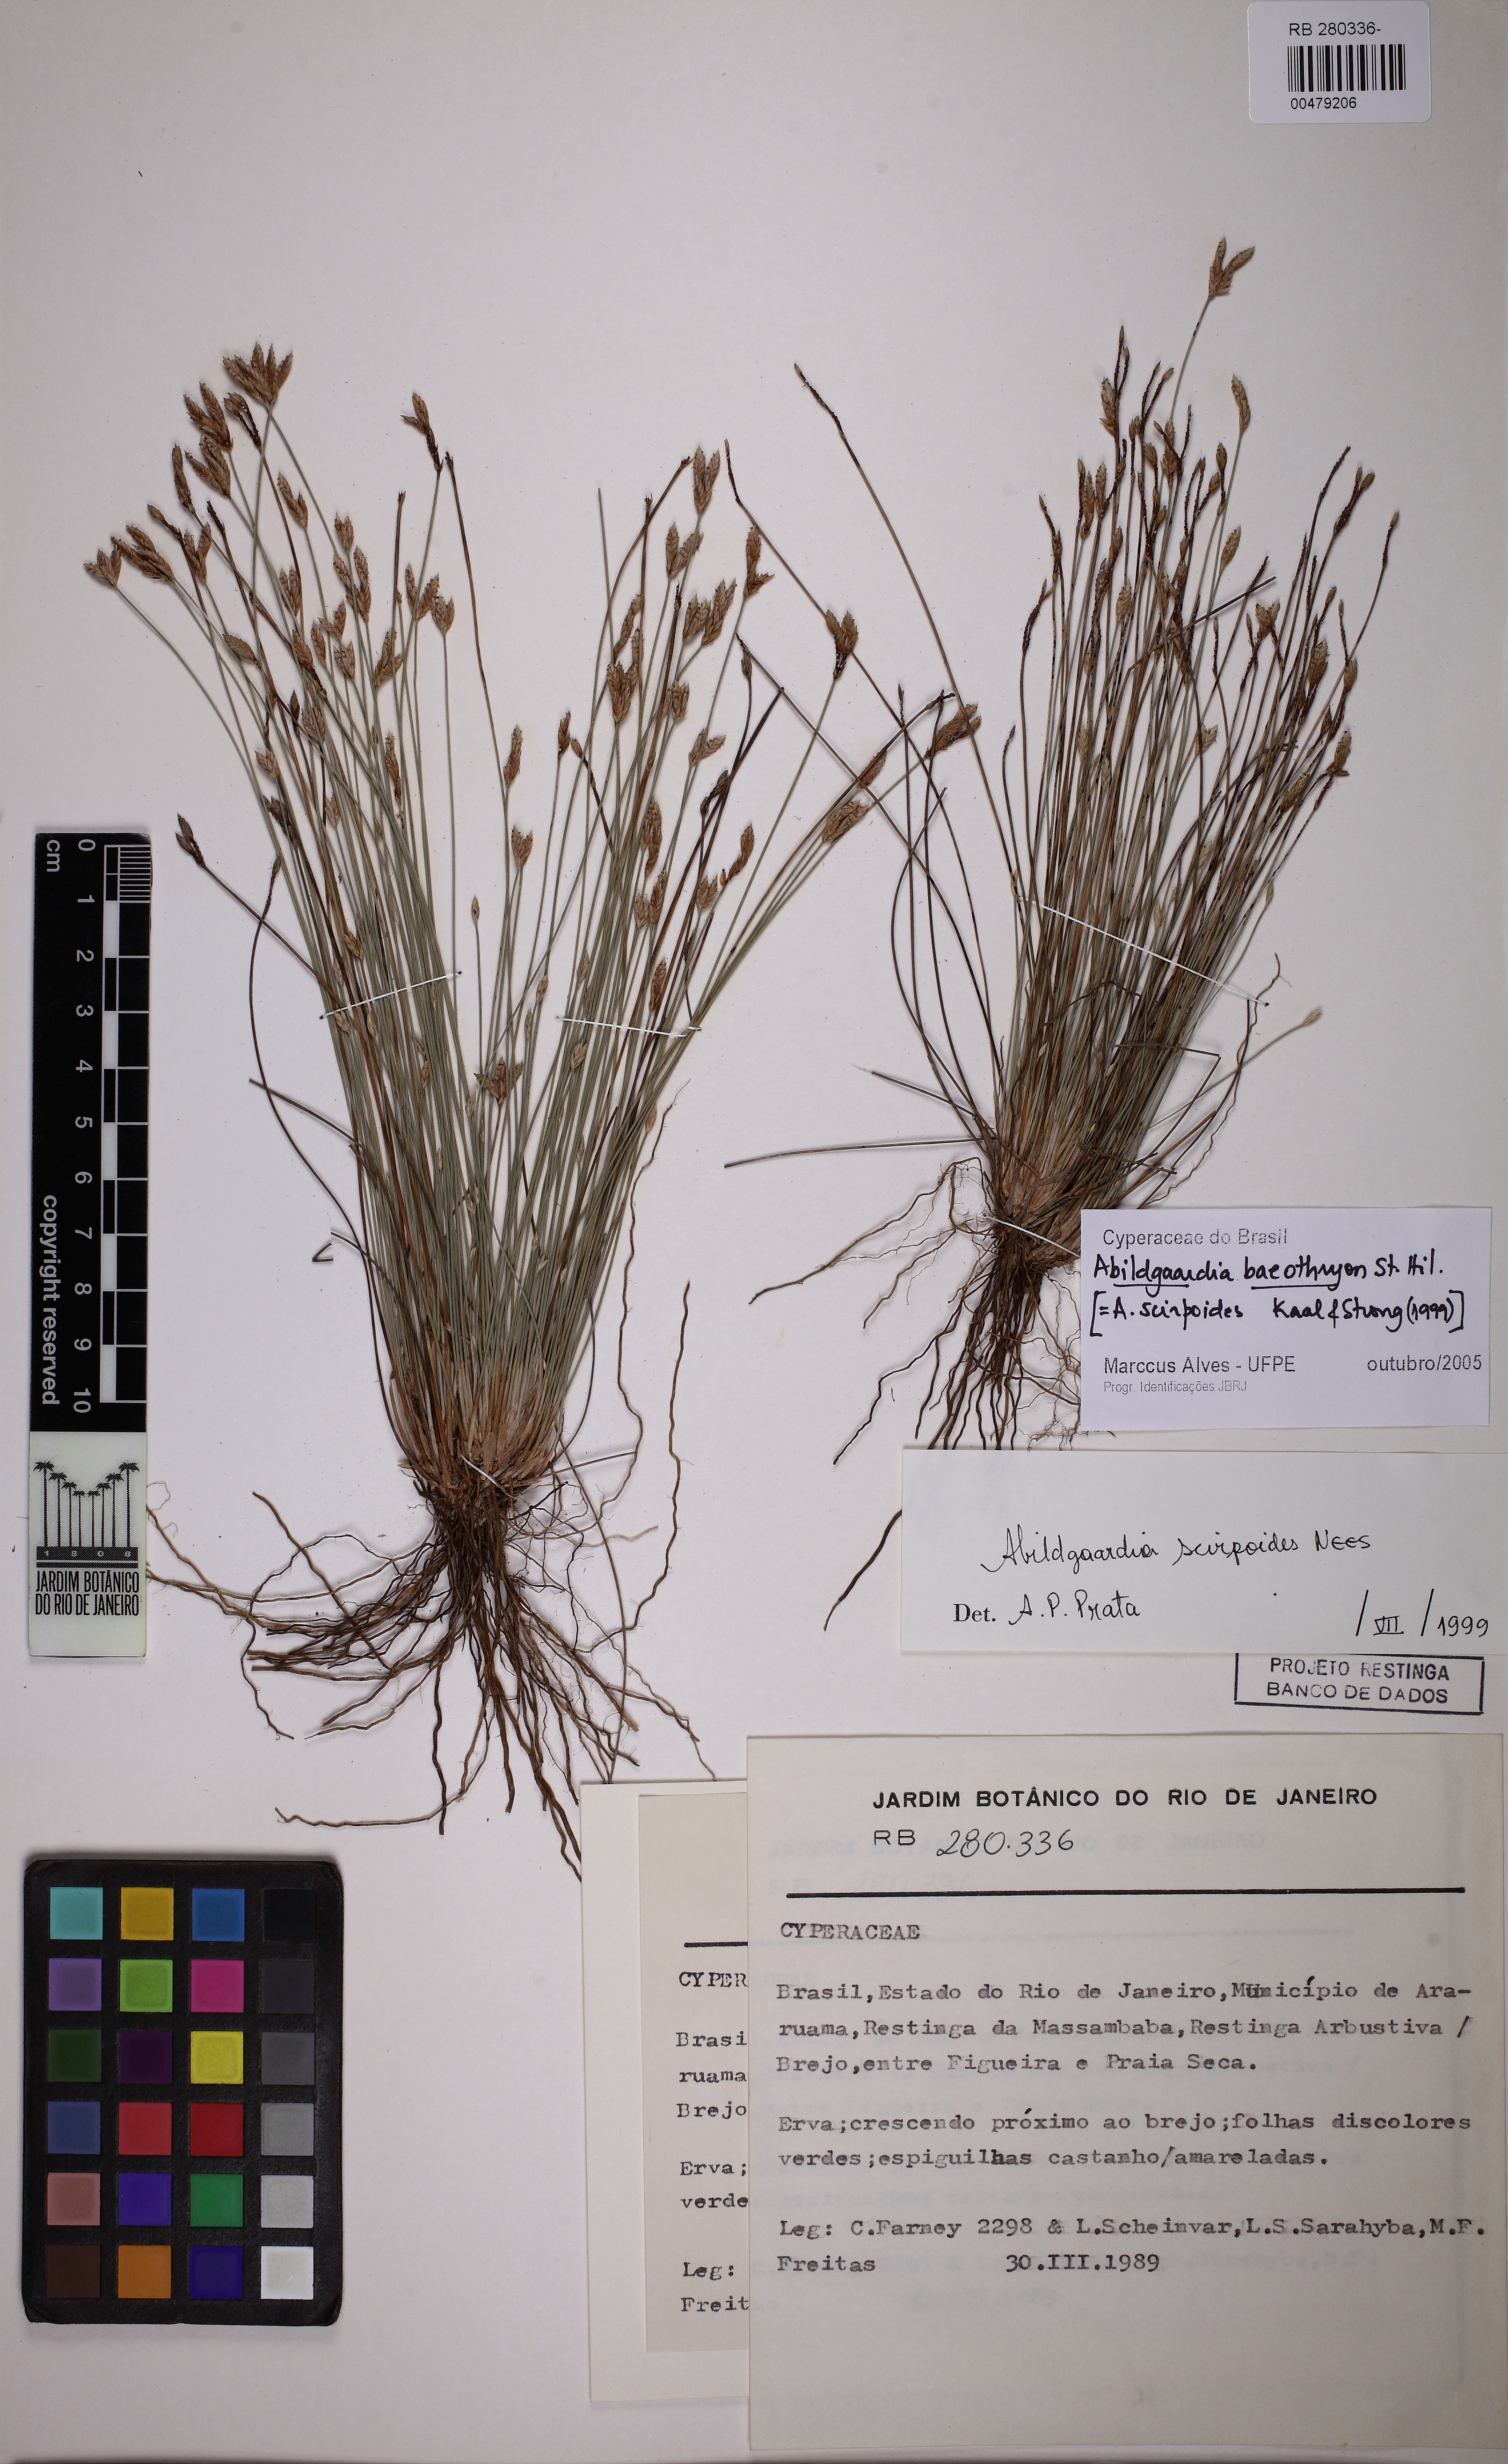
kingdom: Plantae
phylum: Tracheophyta
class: Liliopsida
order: Poales
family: Cyperaceae
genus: Fimbristylis
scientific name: Fimbristylis bahiensis
